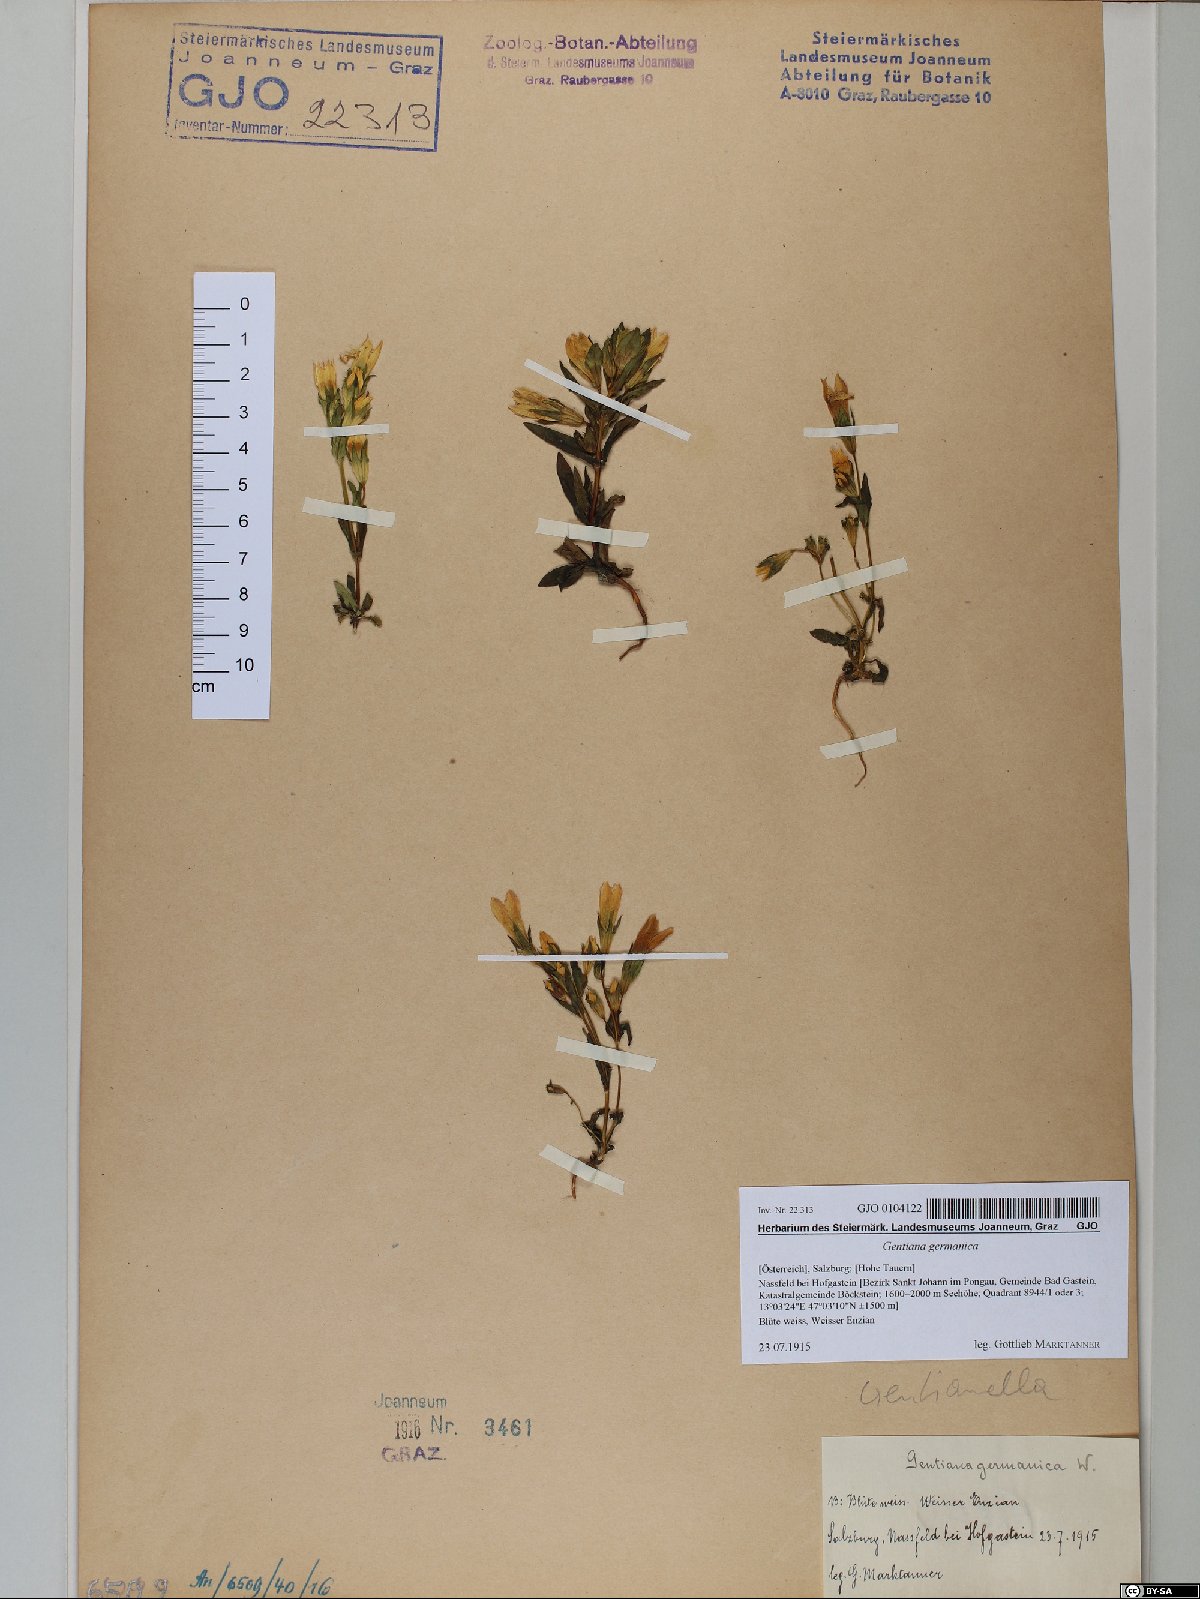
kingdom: Plantae
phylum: Tracheophyta
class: Magnoliopsida
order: Gentianales
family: Gentianaceae
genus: Gentianella
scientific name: Gentianella germanica
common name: Chiltern-gentian
